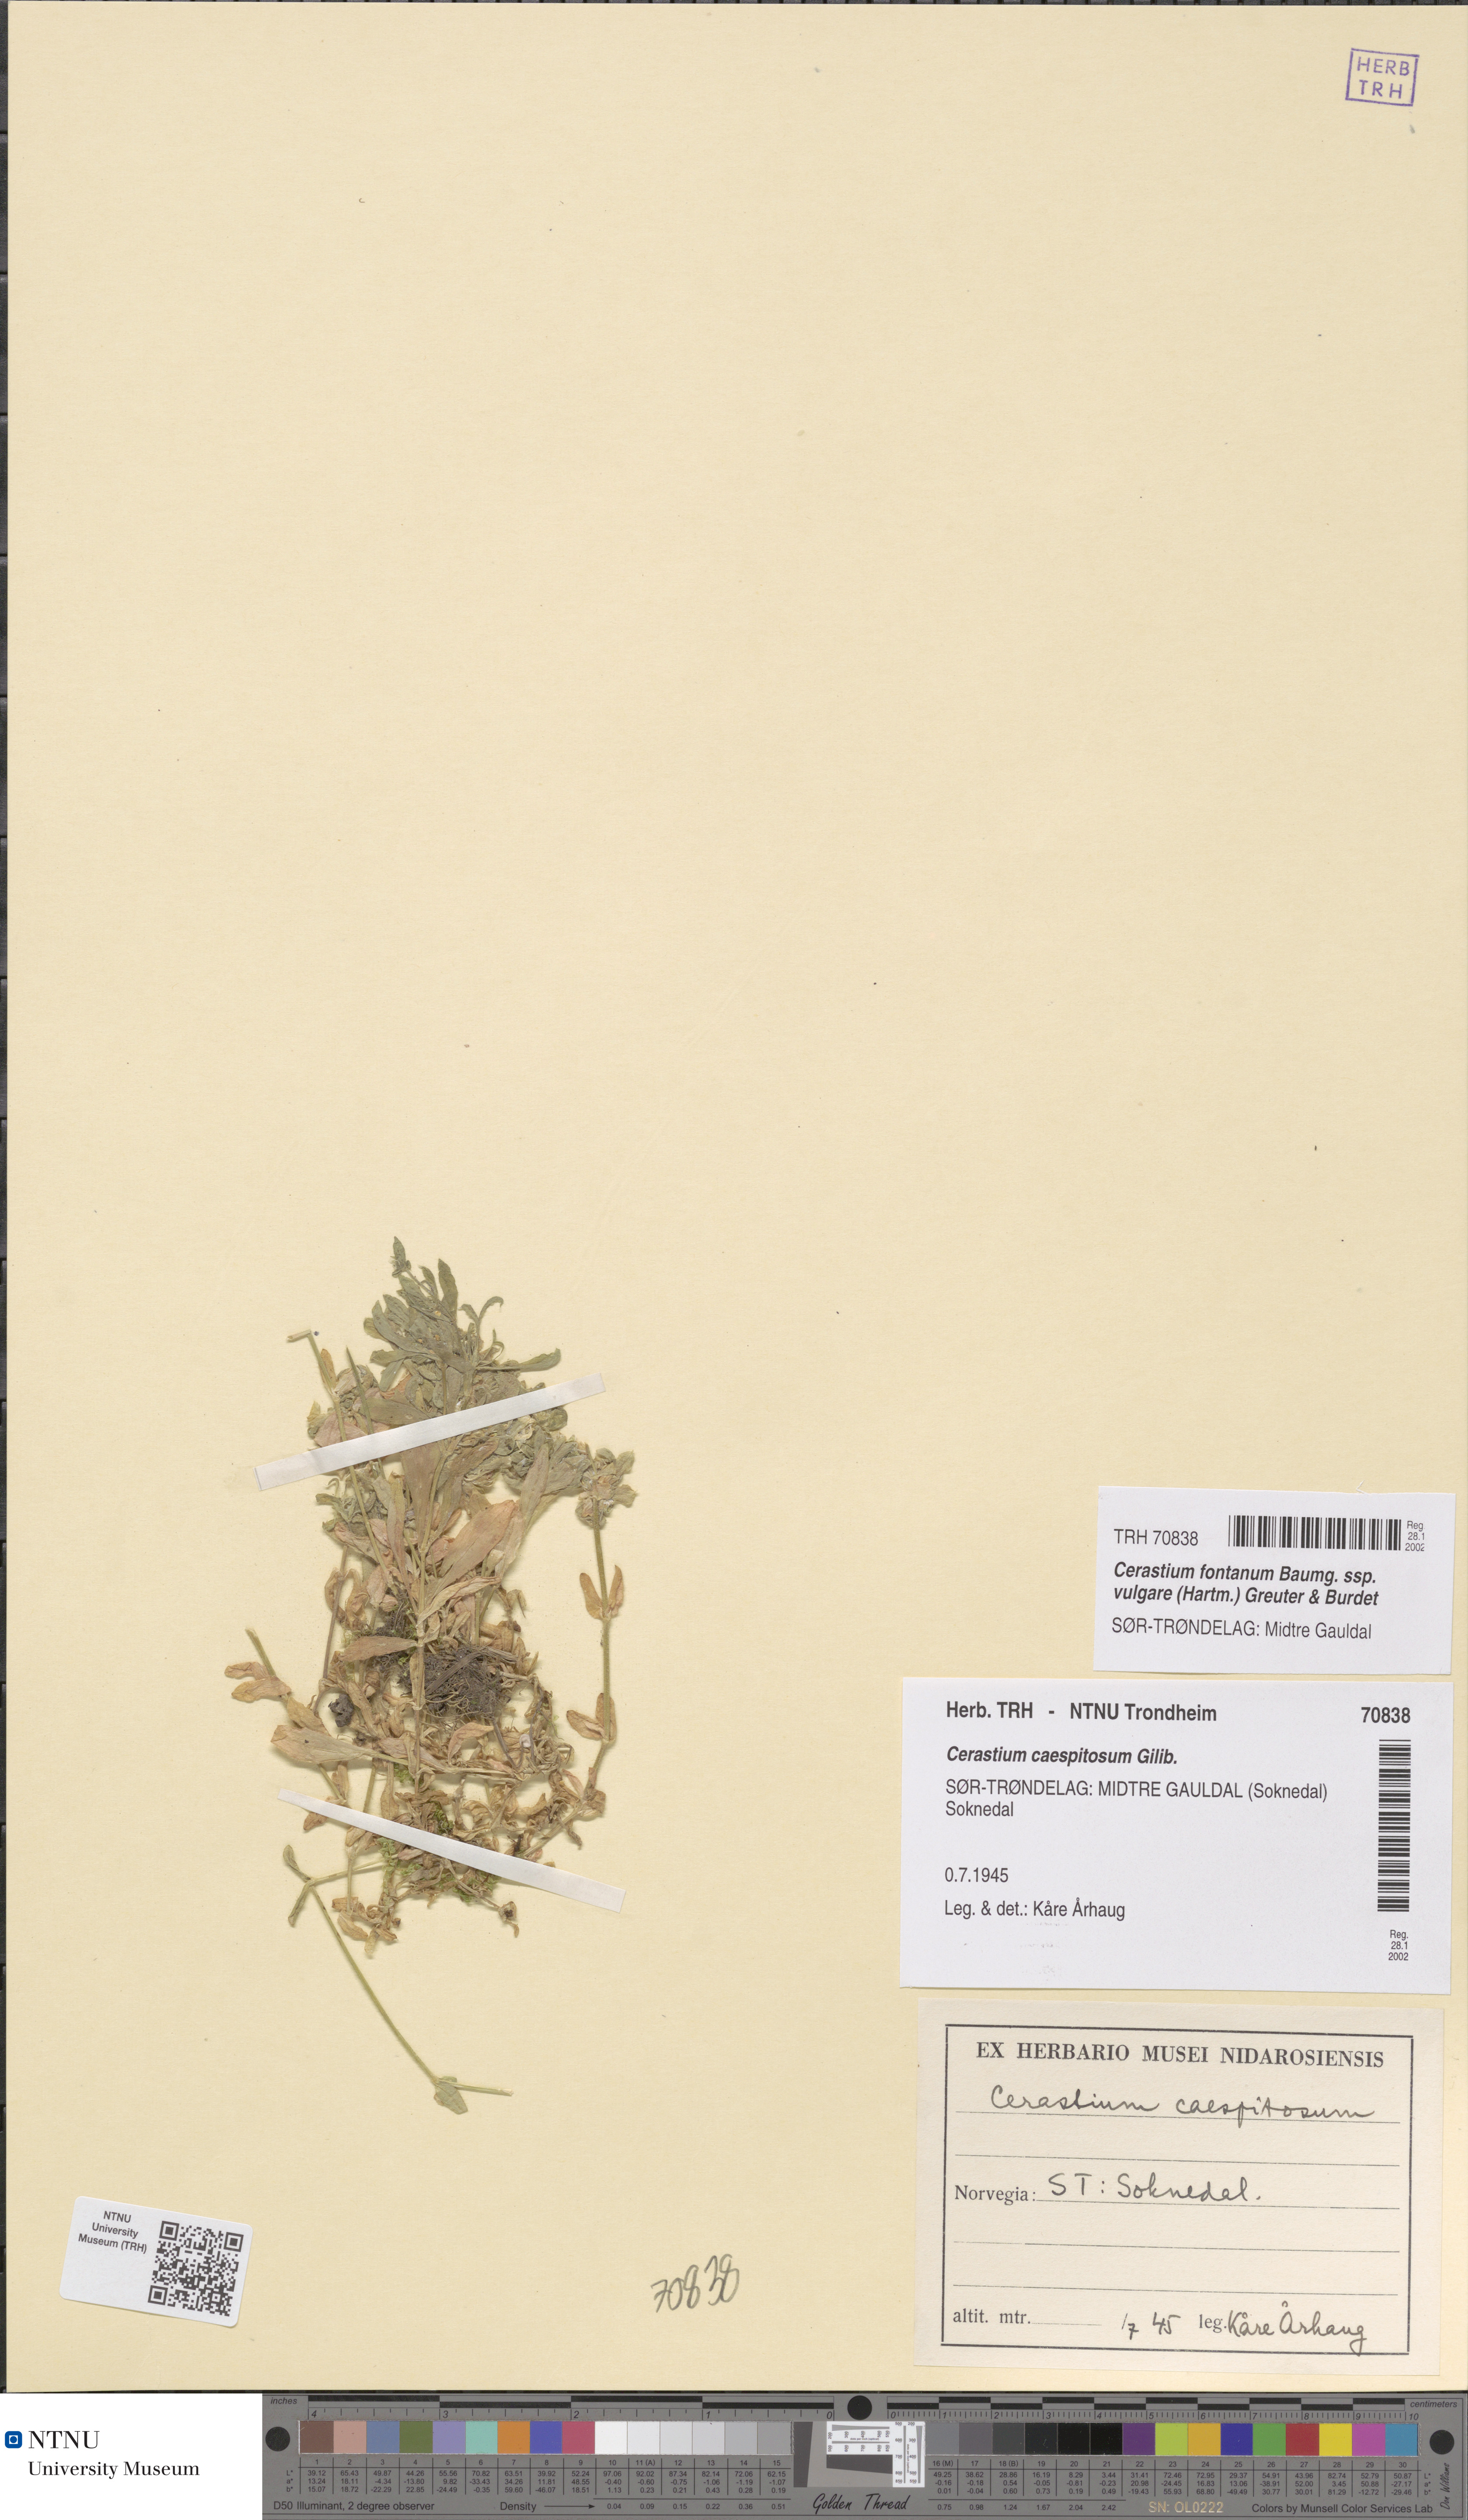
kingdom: Plantae
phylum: Tracheophyta
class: Magnoliopsida
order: Caryophyllales
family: Caryophyllaceae
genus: Cerastium
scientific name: Cerastium holosteoides
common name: Big chickweed
